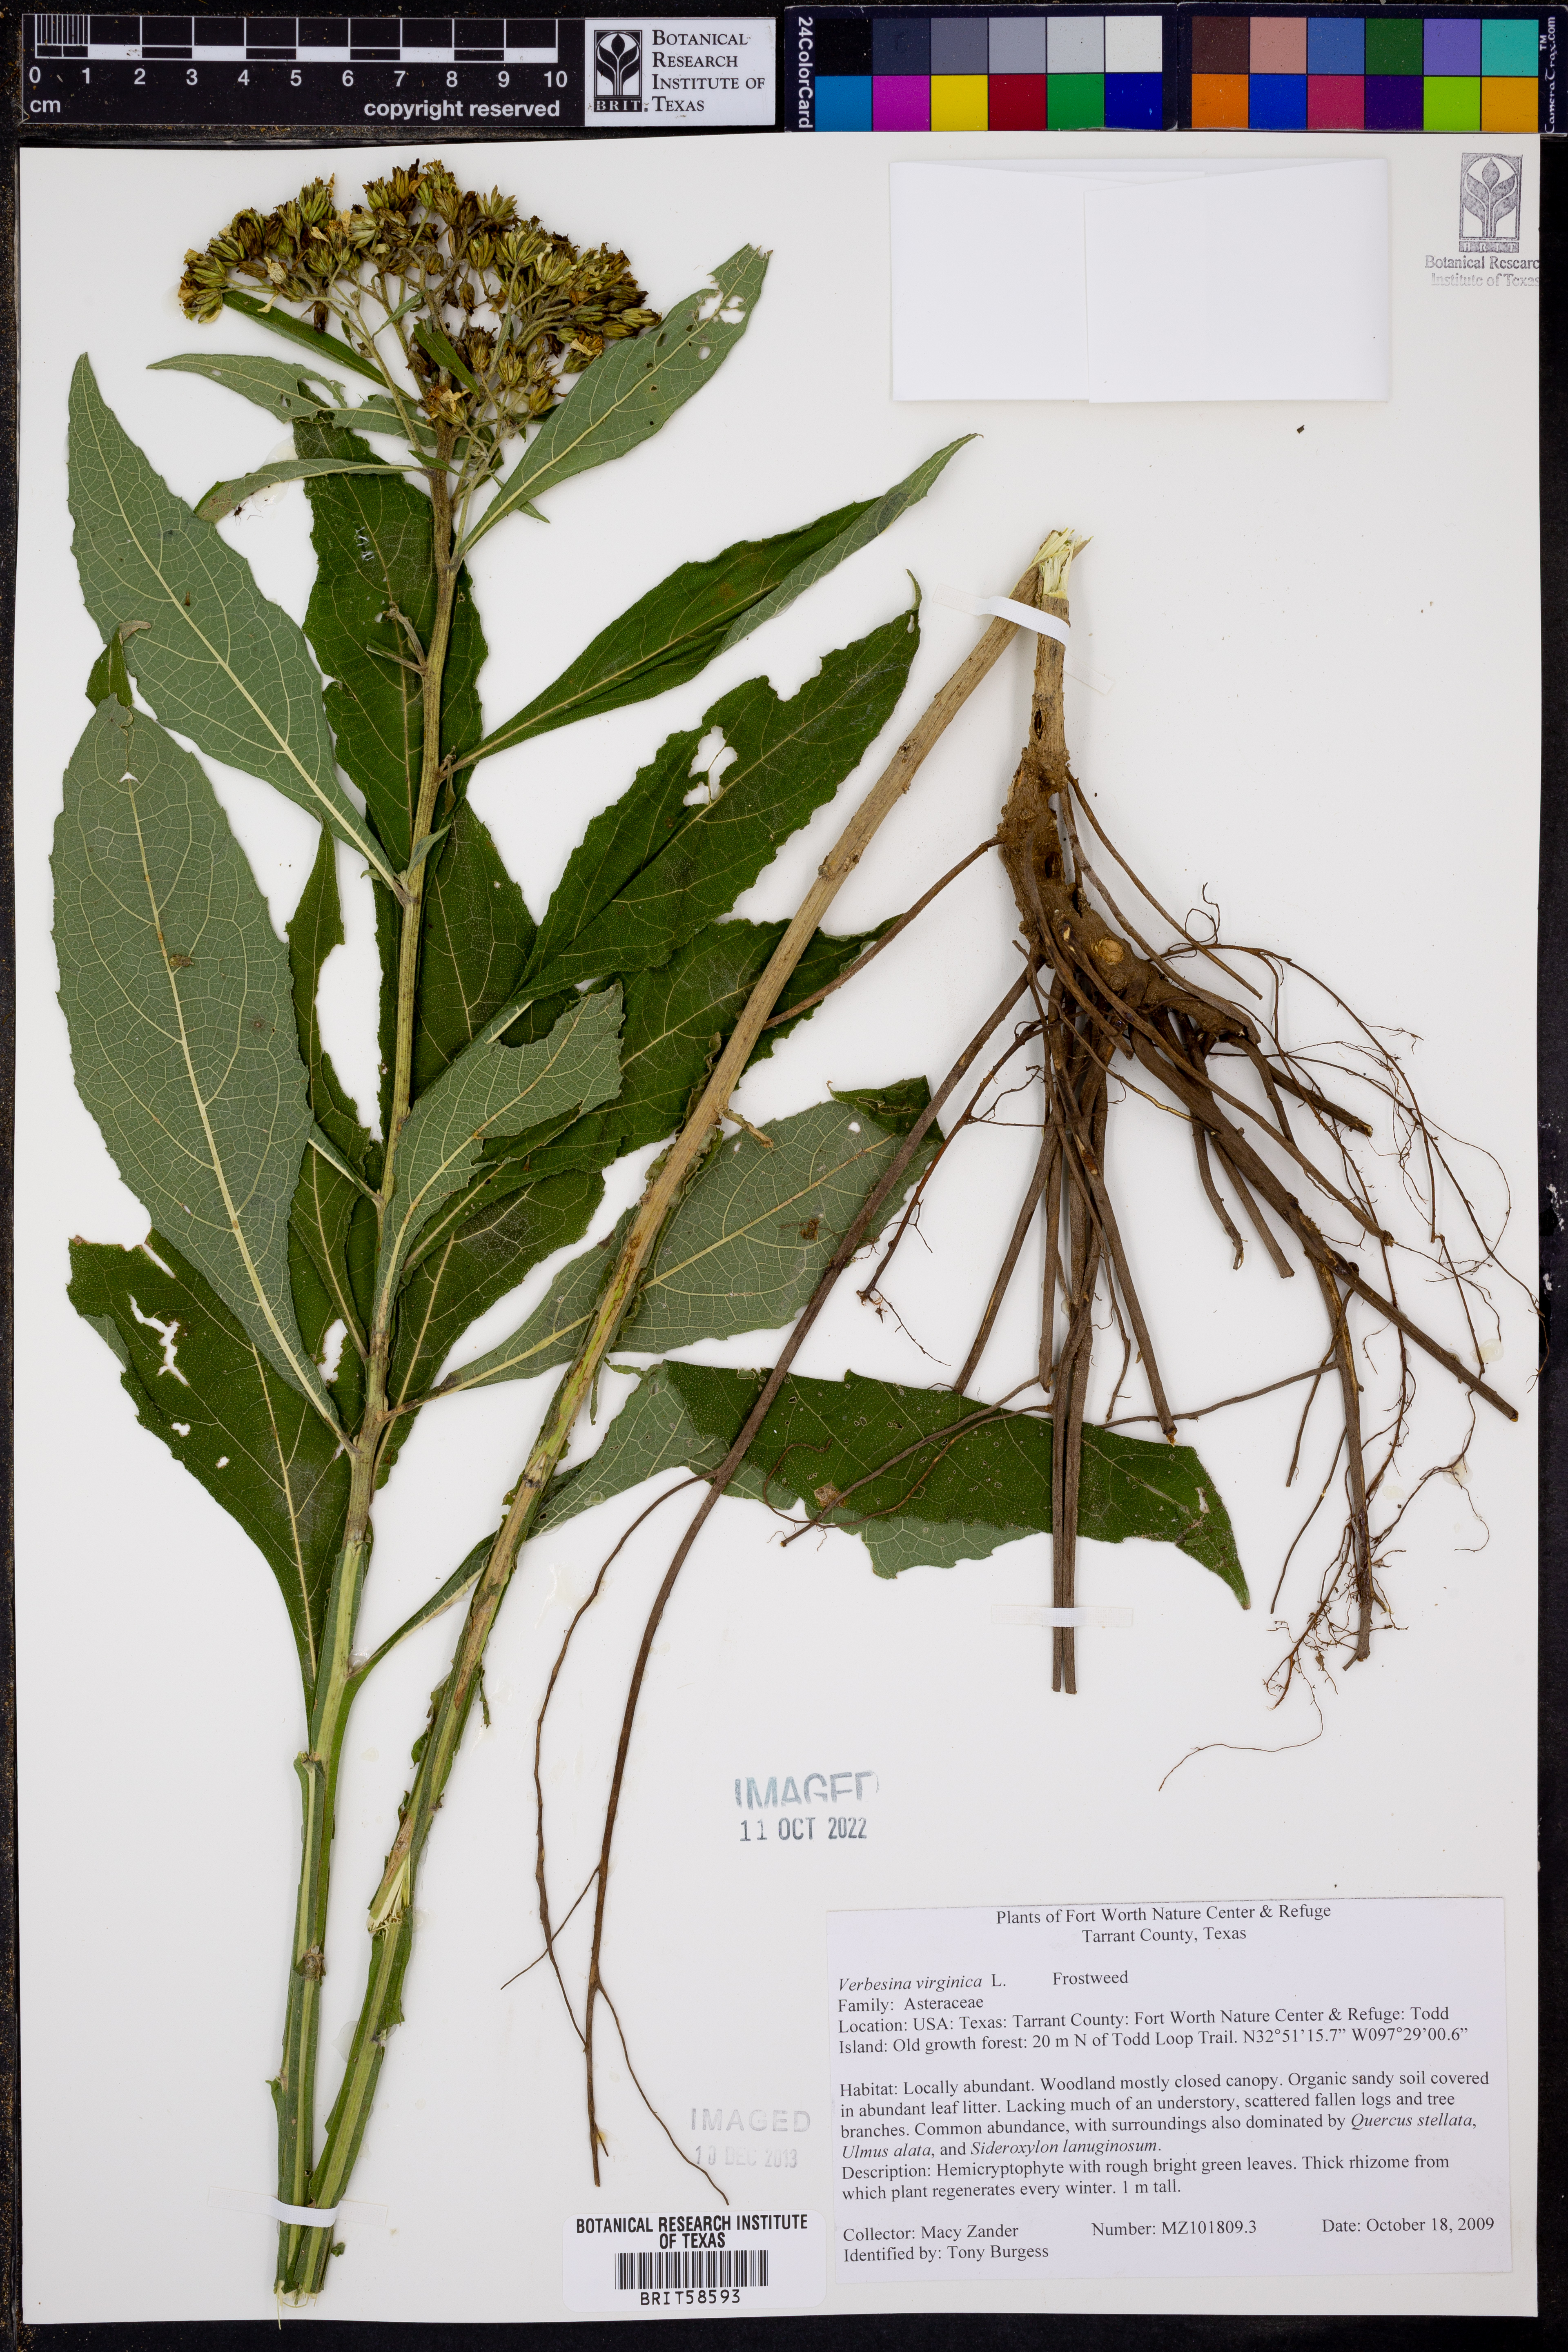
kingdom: Plantae
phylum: Tracheophyta
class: Magnoliopsida
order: Asterales
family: Asteraceae
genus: Verbesina
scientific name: Verbesina virginica
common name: Frostweed
